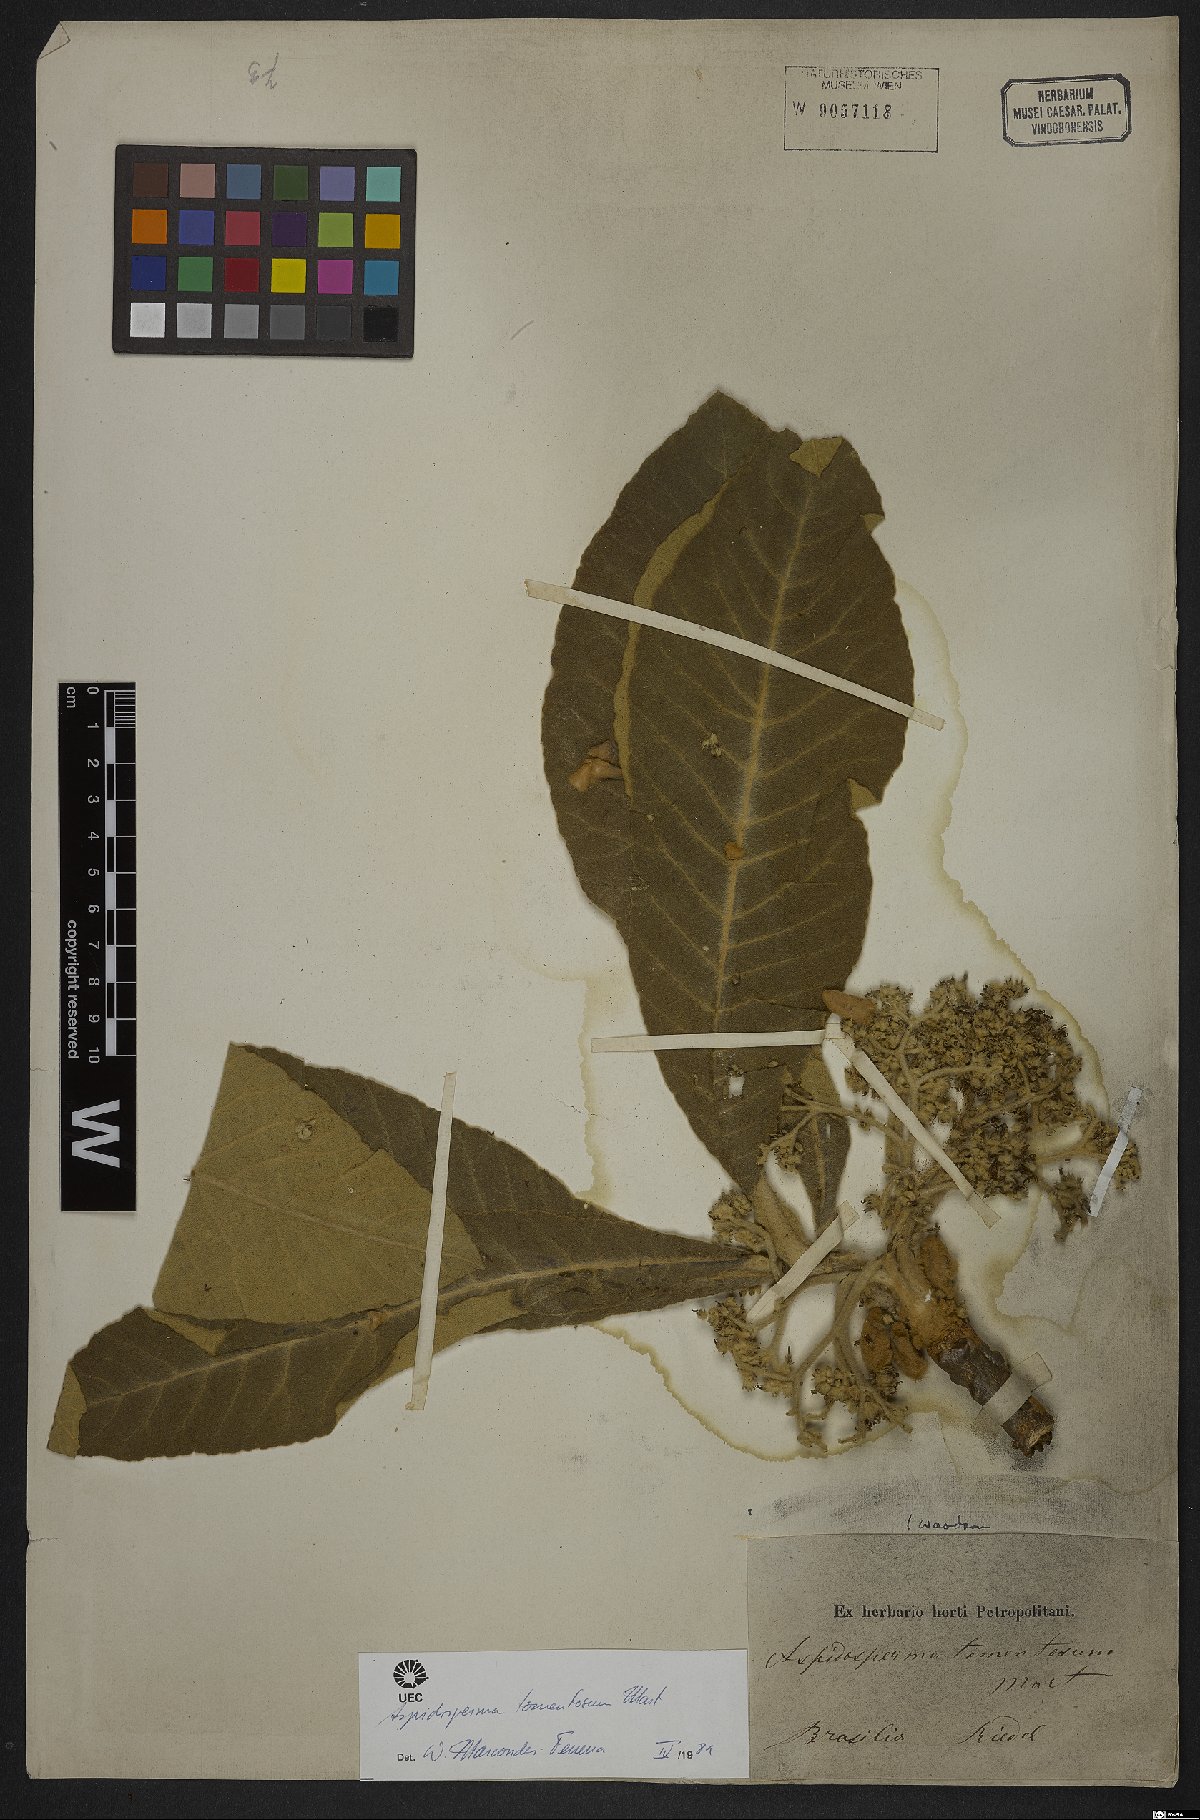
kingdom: Plantae
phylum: Tracheophyta
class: Magnoliopsida
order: Gentianales
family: Apocynaceae
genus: Aspidosperma
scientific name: Aspidosperma tomentosum
